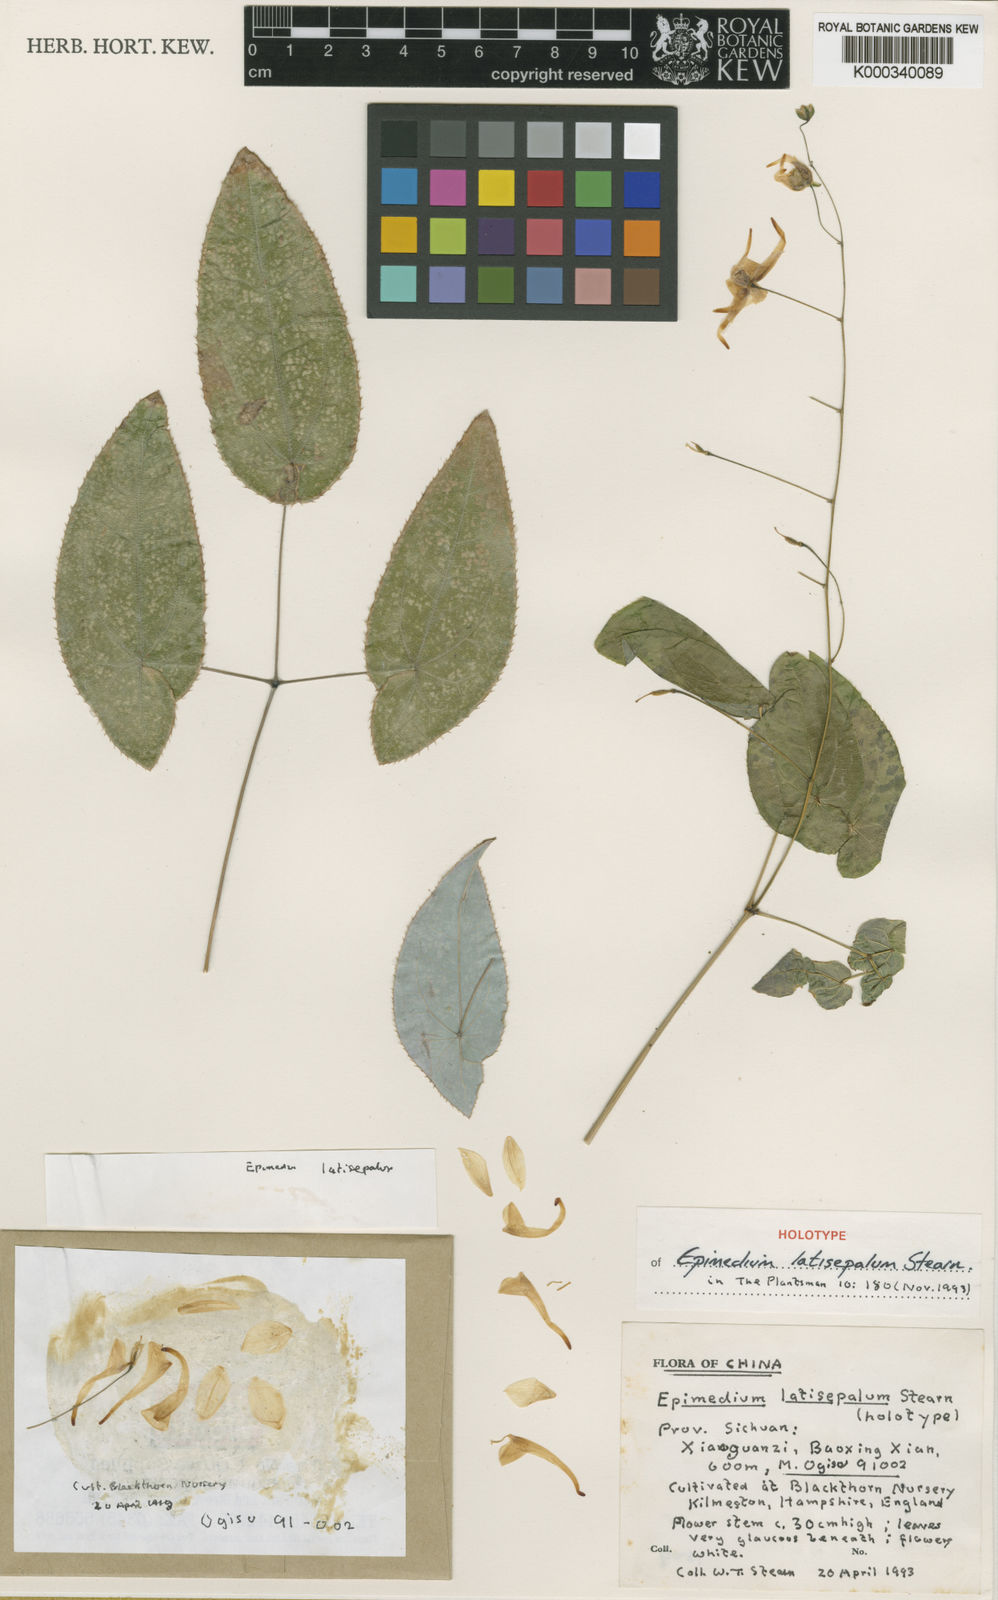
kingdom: Plantae
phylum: Tracheophyta
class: Magnoliopsida
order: Ranunculales
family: Berberidaceae
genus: Epimedium
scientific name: Epimedium latisepalum
